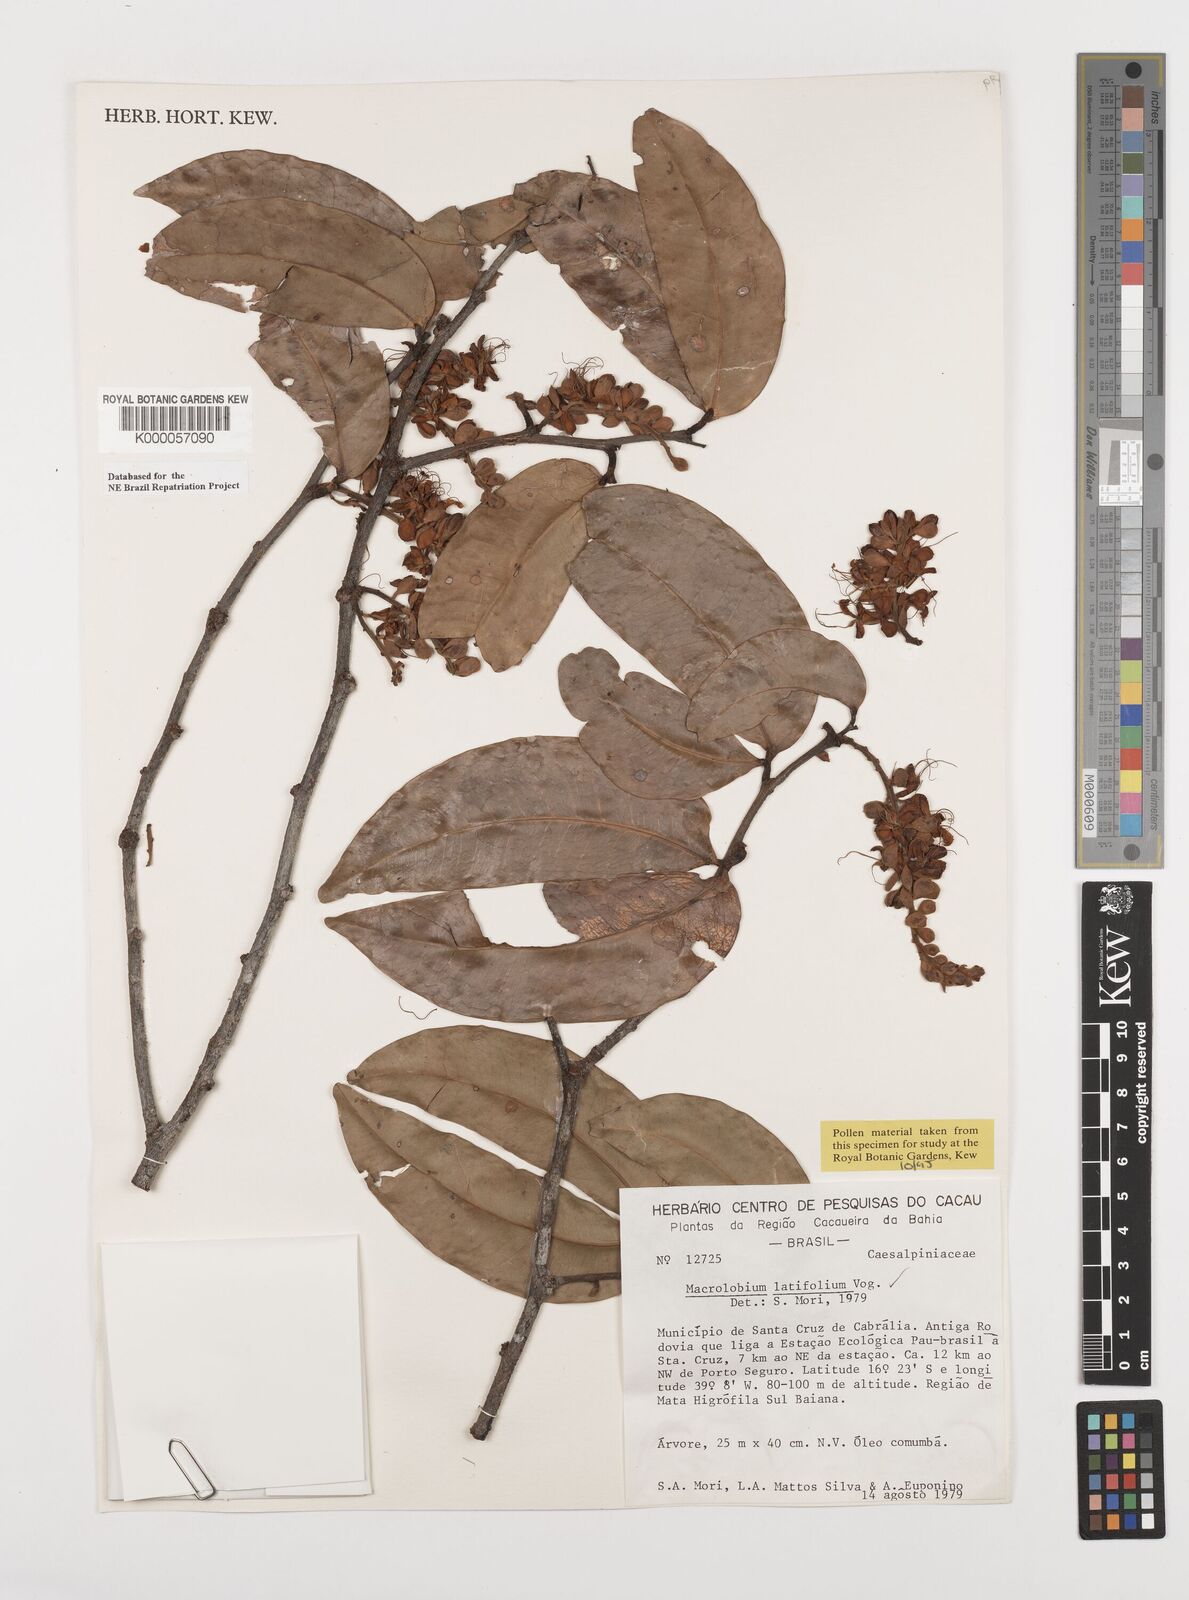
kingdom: Plantae
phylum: Tracheophyta
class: Magnoliopsida
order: Fabales
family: Fabaceae
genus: Macrolobium
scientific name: Macrolobium latifolium
